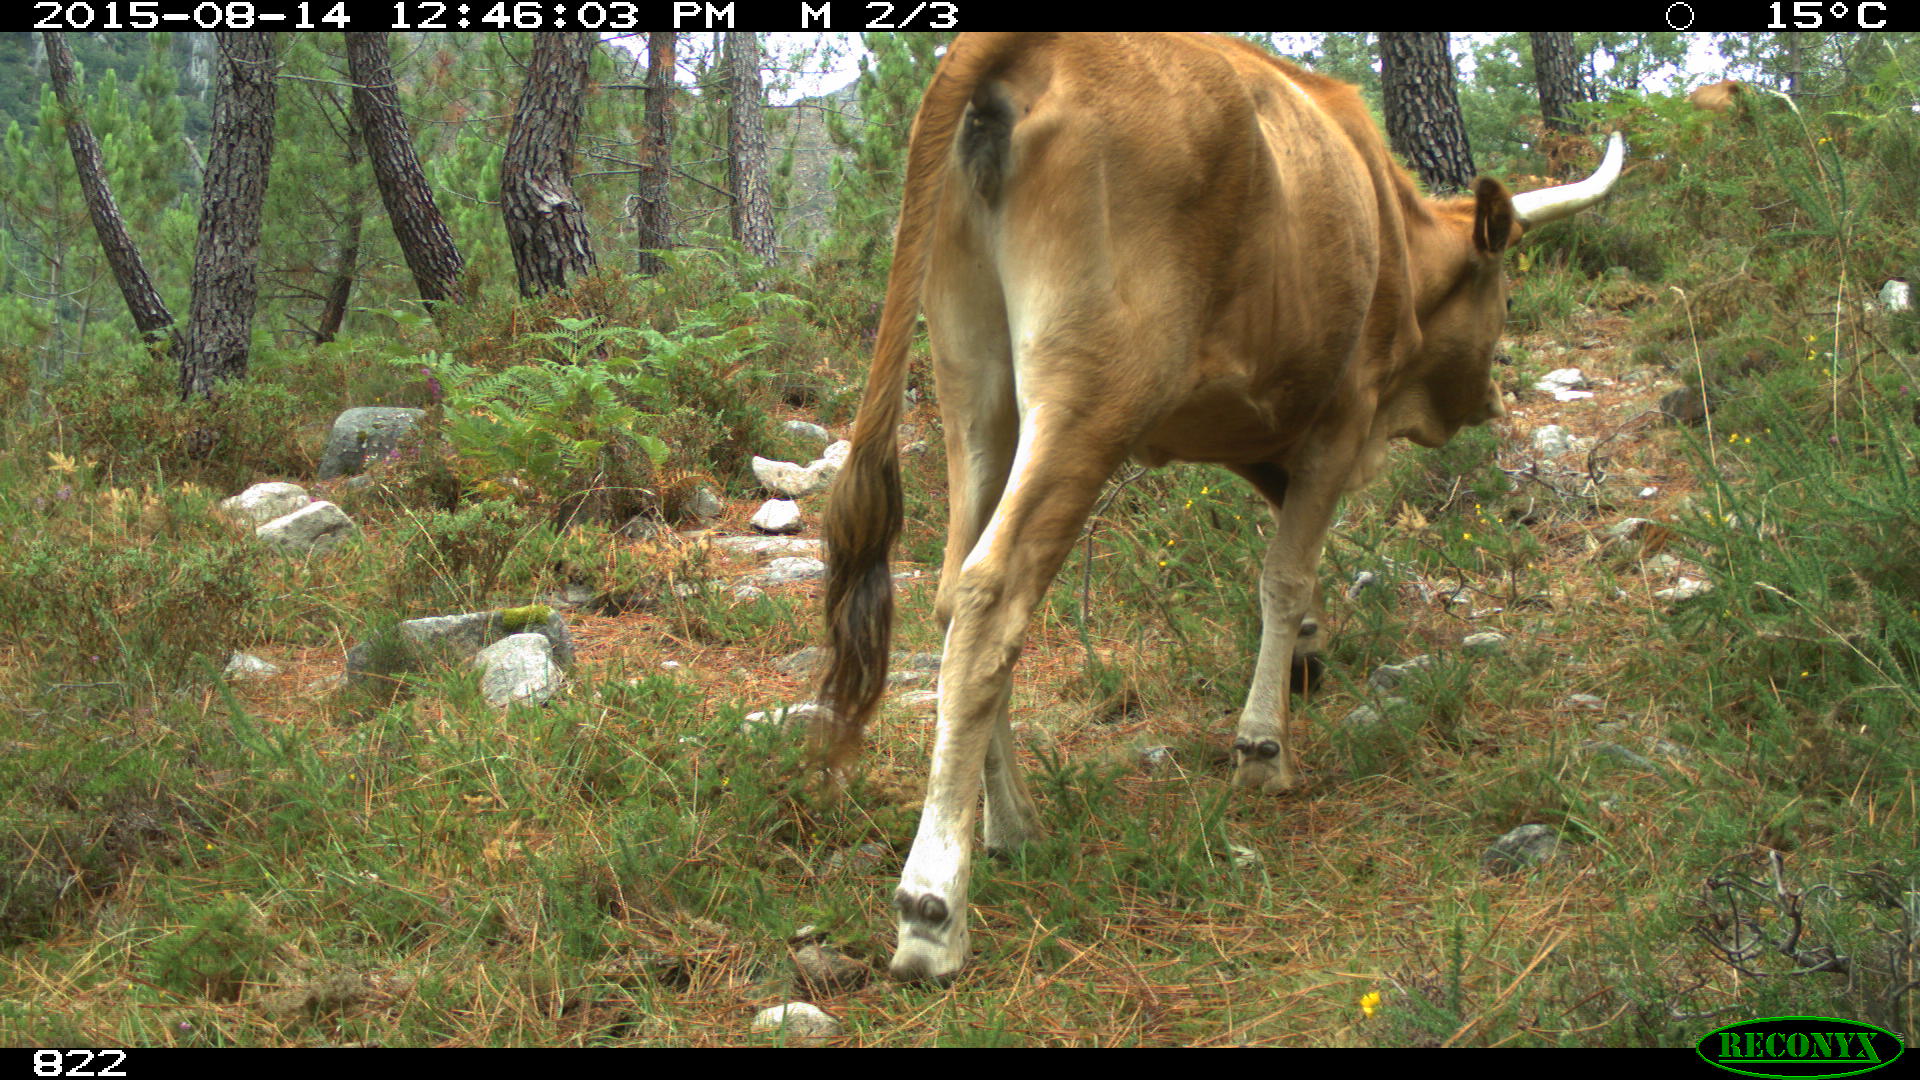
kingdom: Animalia
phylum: Chordata
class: Mammalia
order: Artiodactyla
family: Bovidae
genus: Bos
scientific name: Bos taurus
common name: Domesticated cattle
